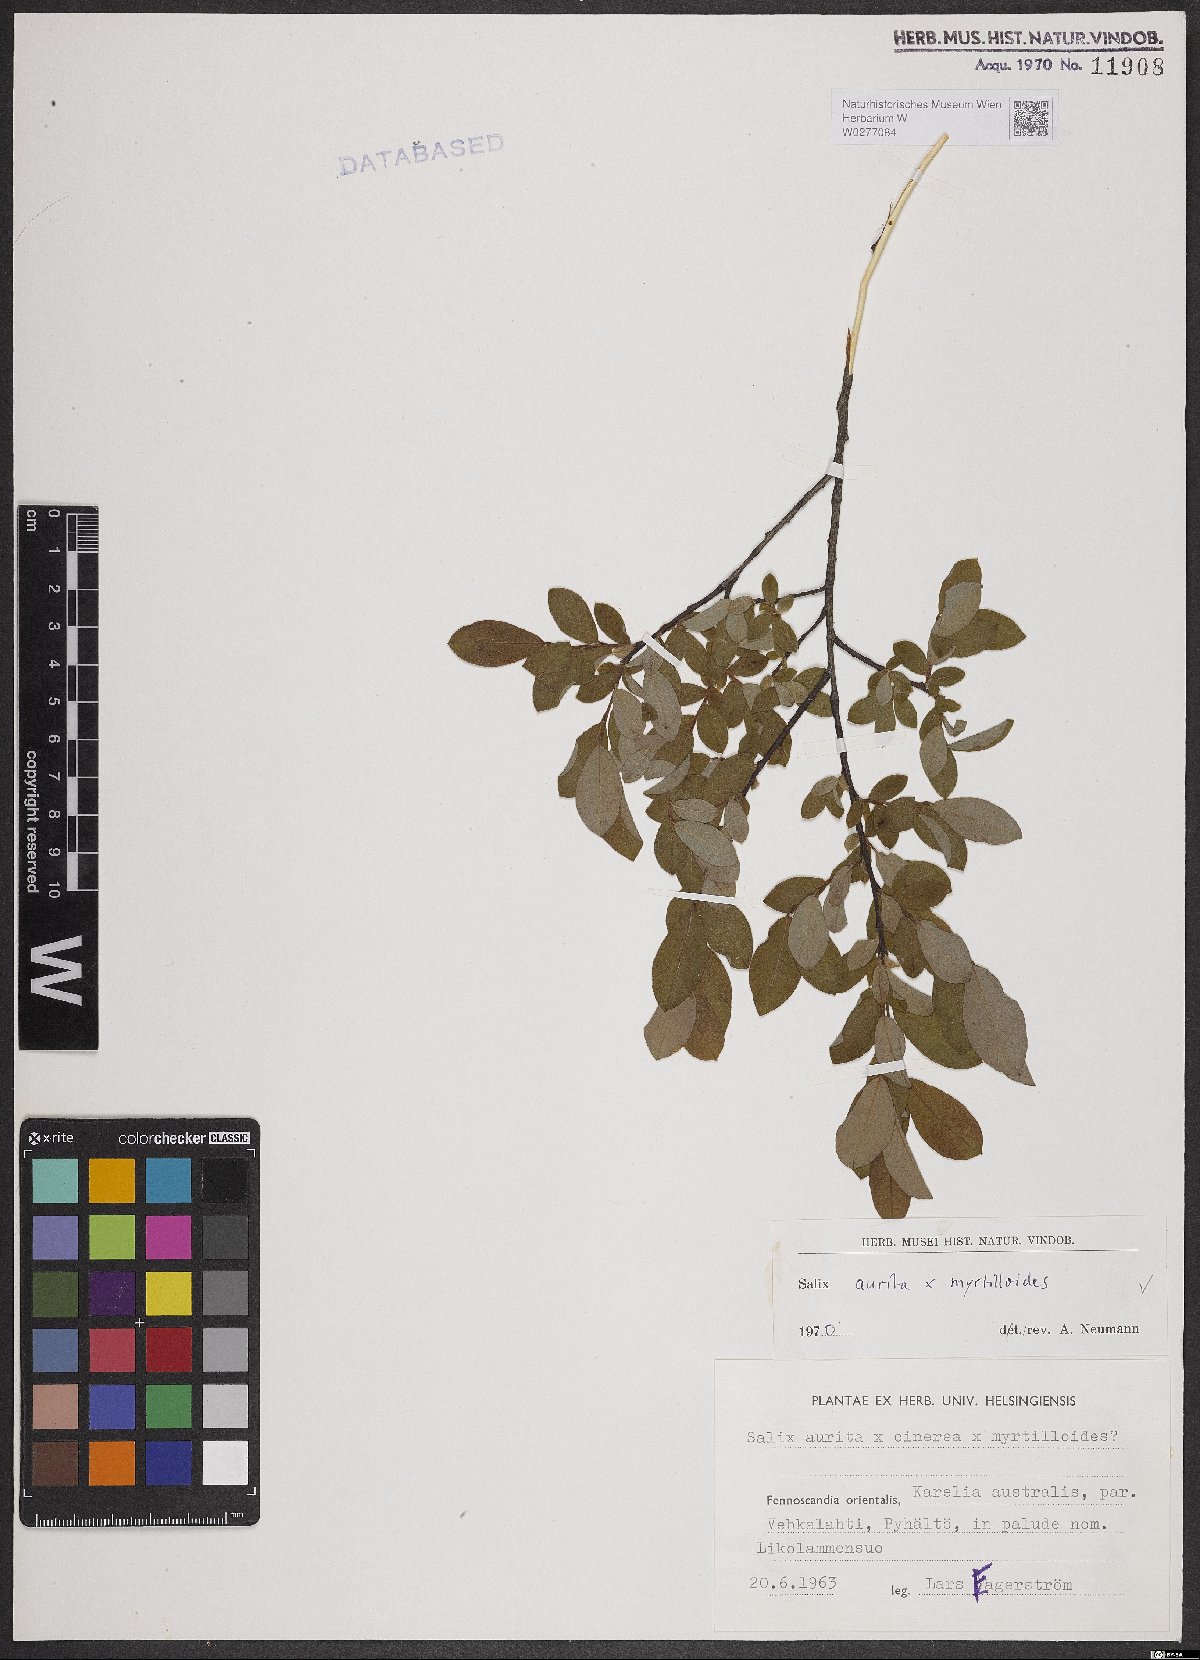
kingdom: Plantae
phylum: Tracheophyta
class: Magnoliopsida
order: Malpighiales
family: Salicaceae
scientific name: Salicaceae
